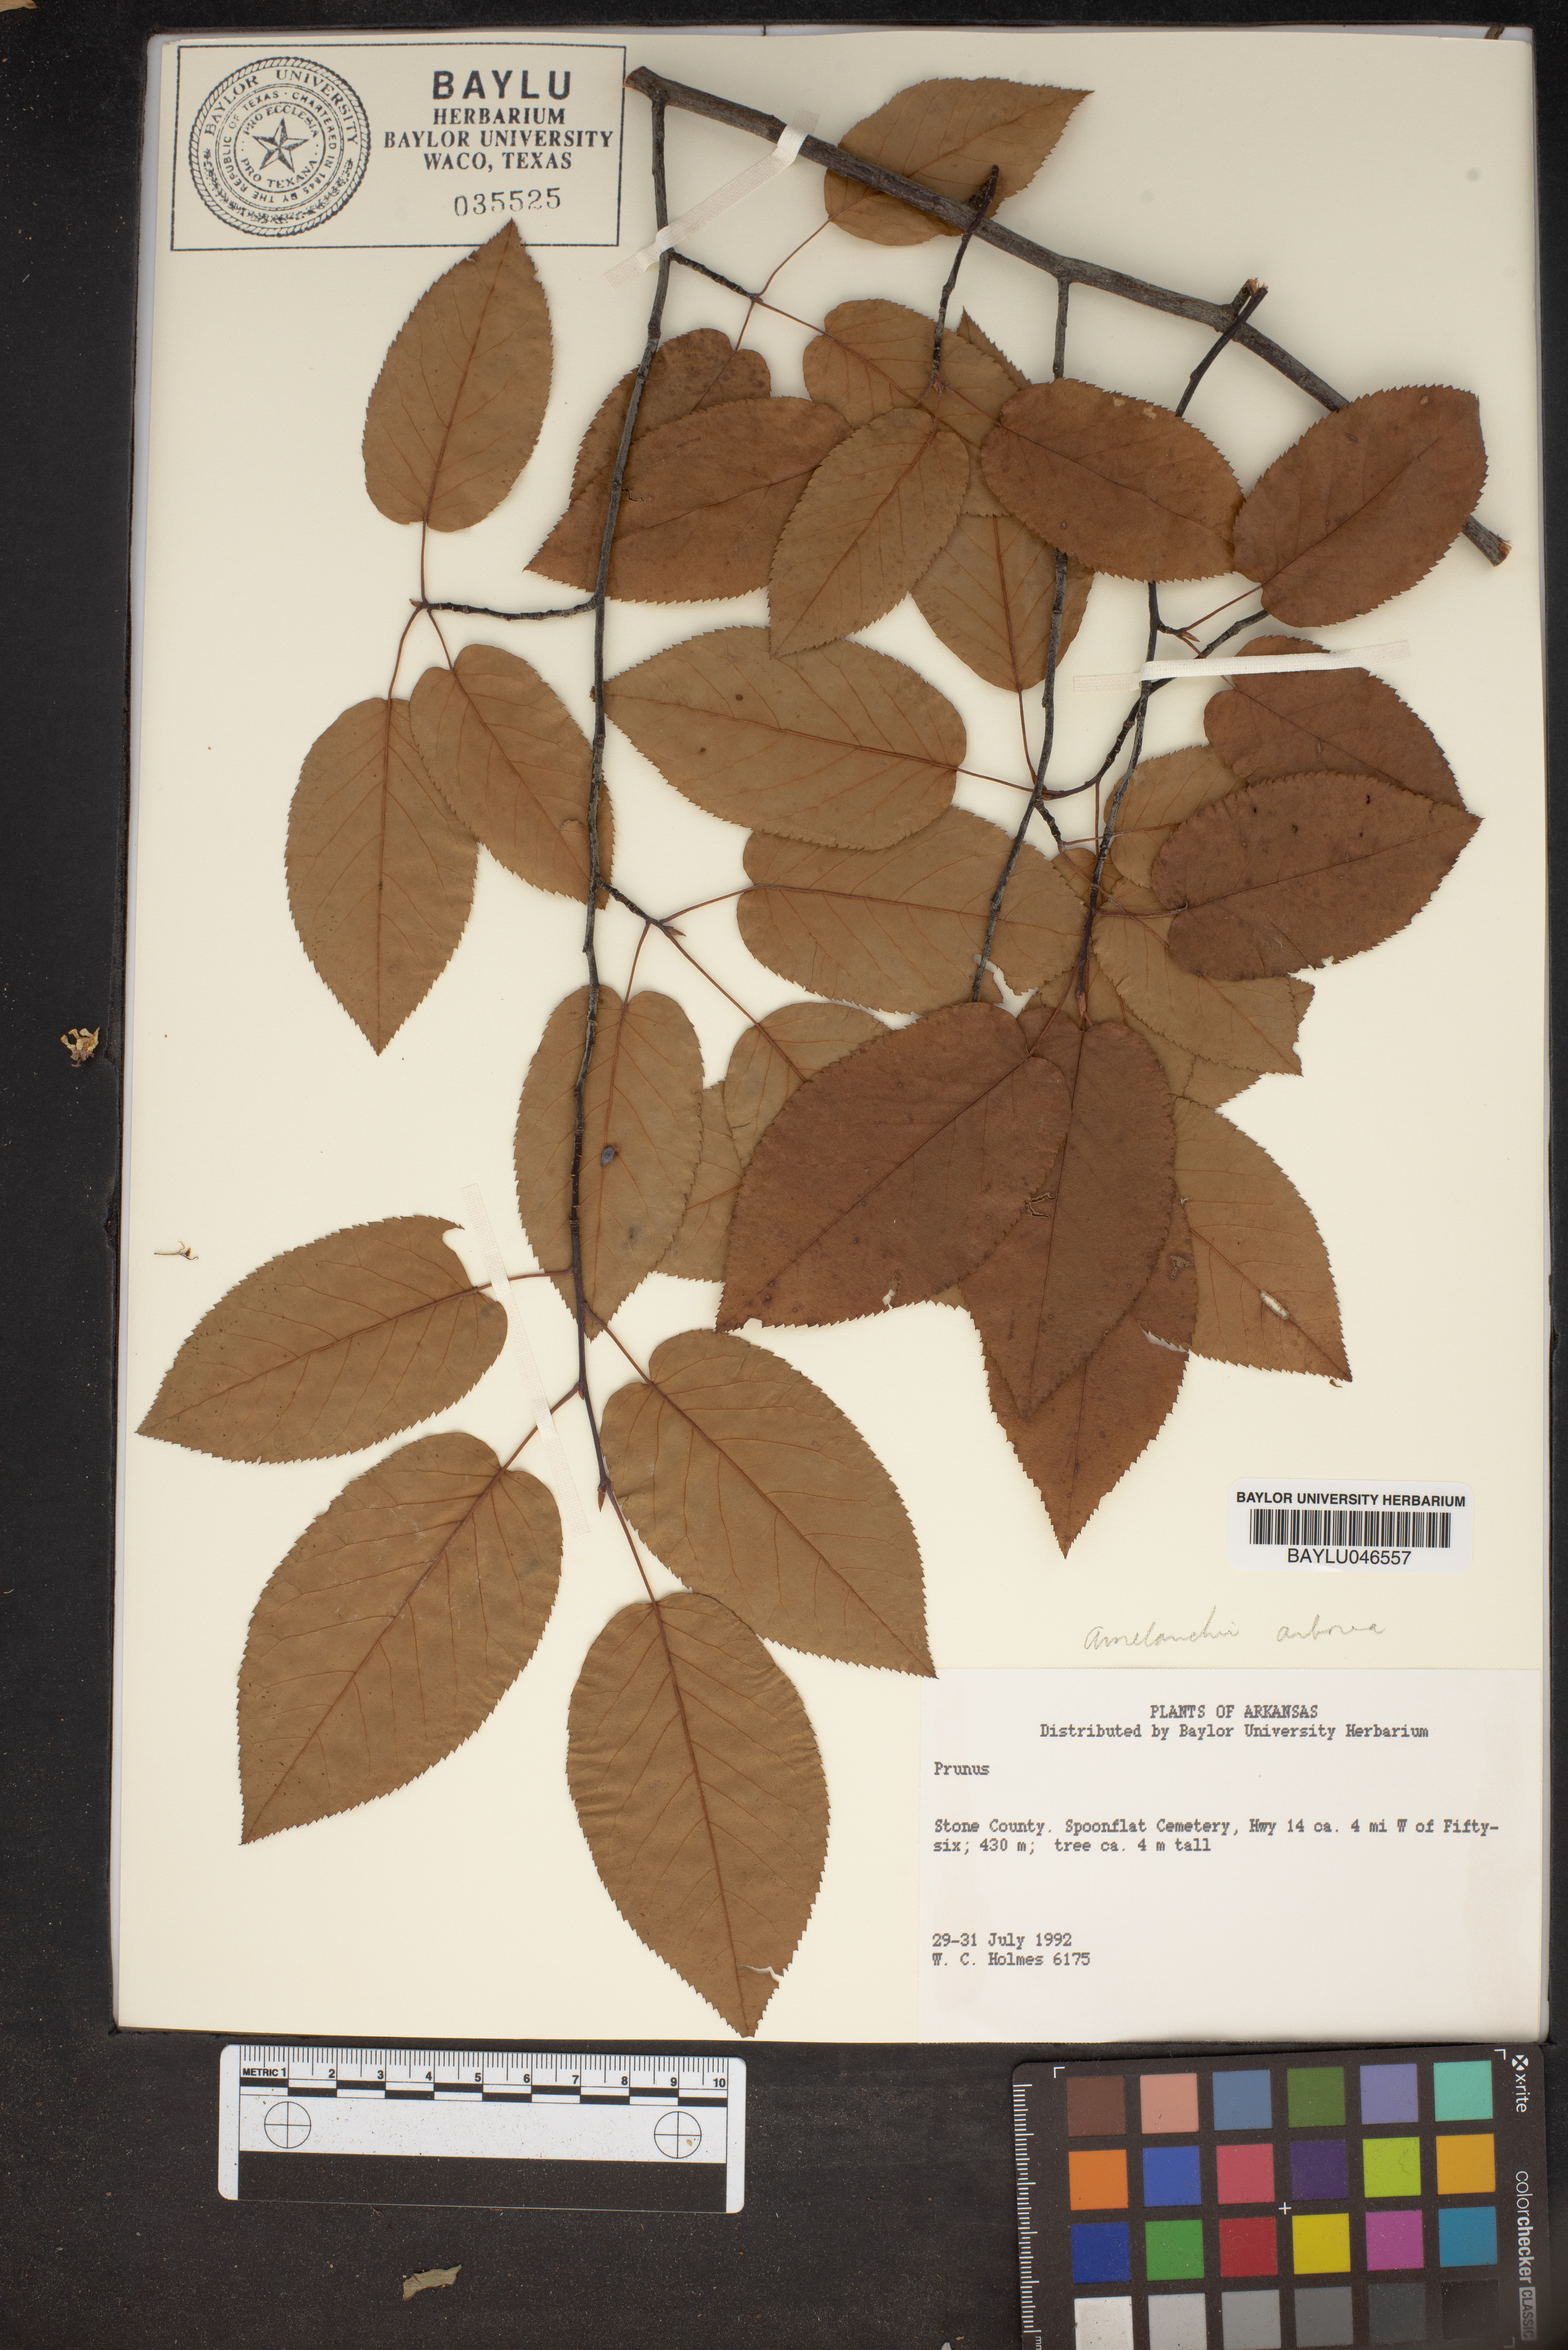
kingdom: Plantae
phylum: Tracheophyta
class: Magnoliopsida
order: Rosales
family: Rosaceae
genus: Prunus
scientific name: Prunus
